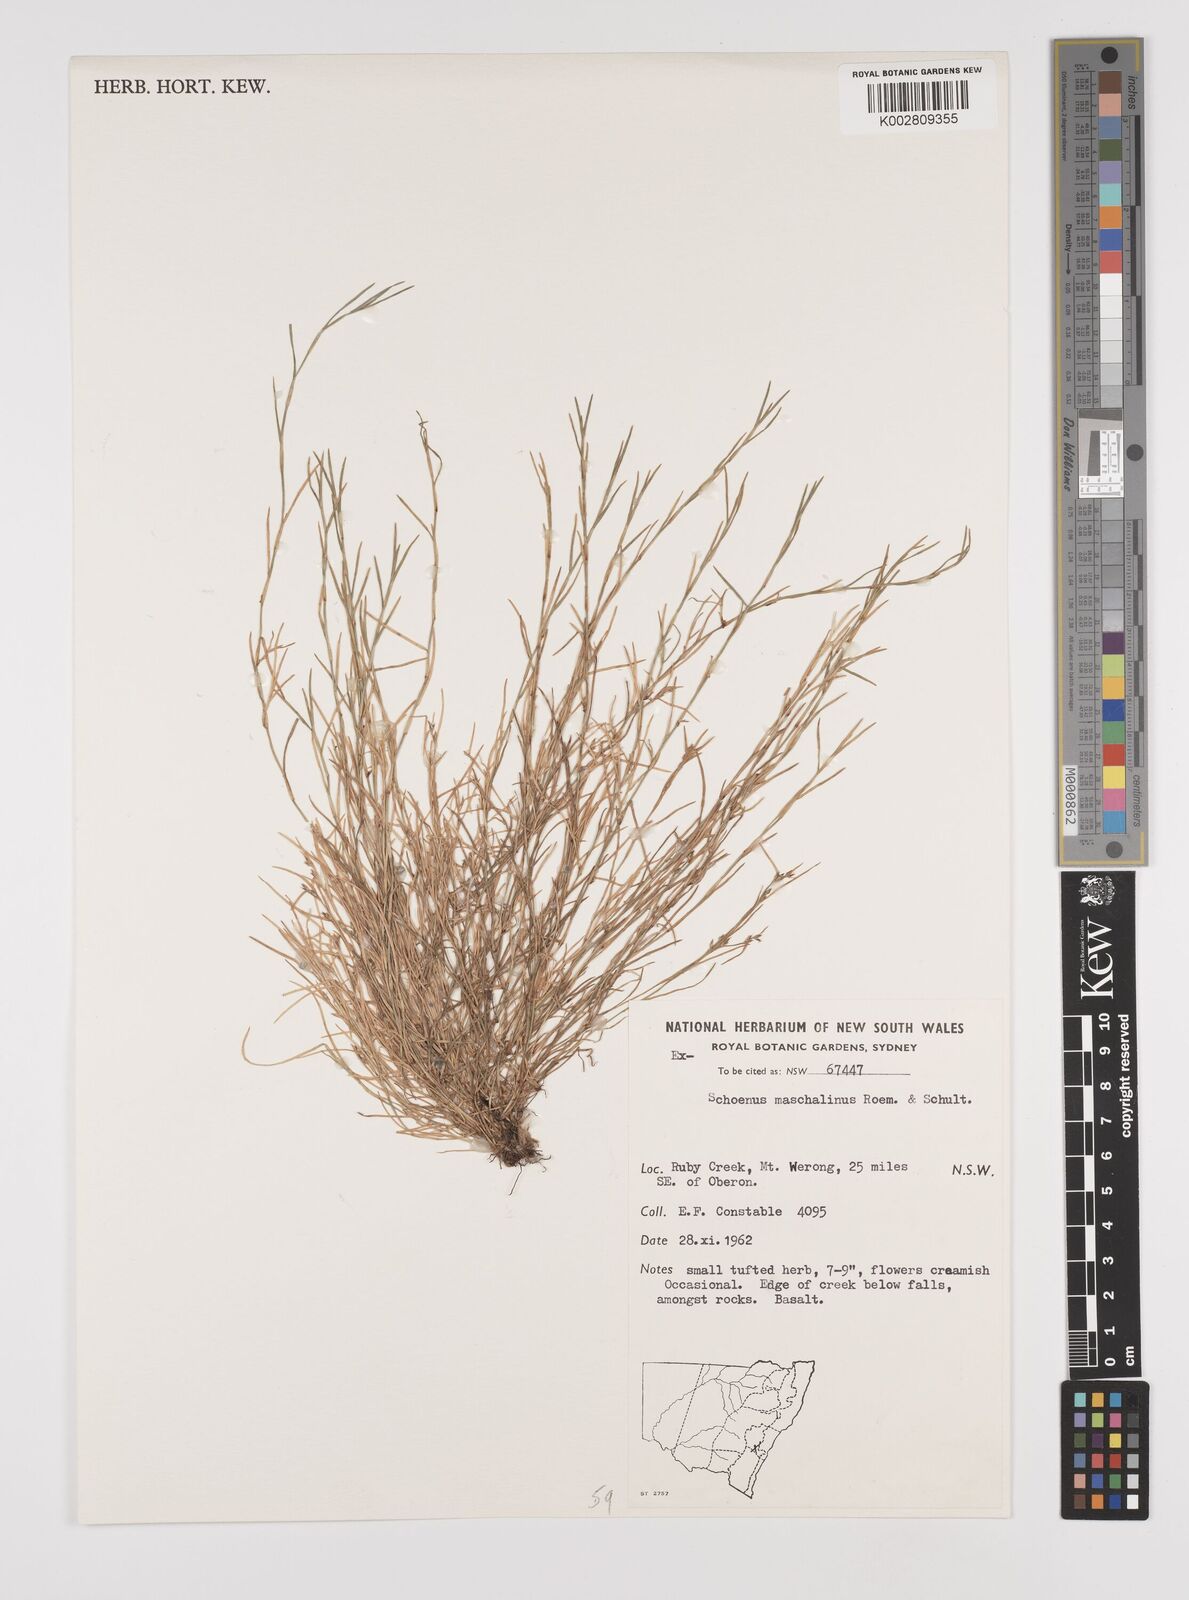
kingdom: Plantae
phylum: Tracheophyta
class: Liliopsida
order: Poales
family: Cyperaceae
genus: Schoenus
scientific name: Schoenus maschalinus
